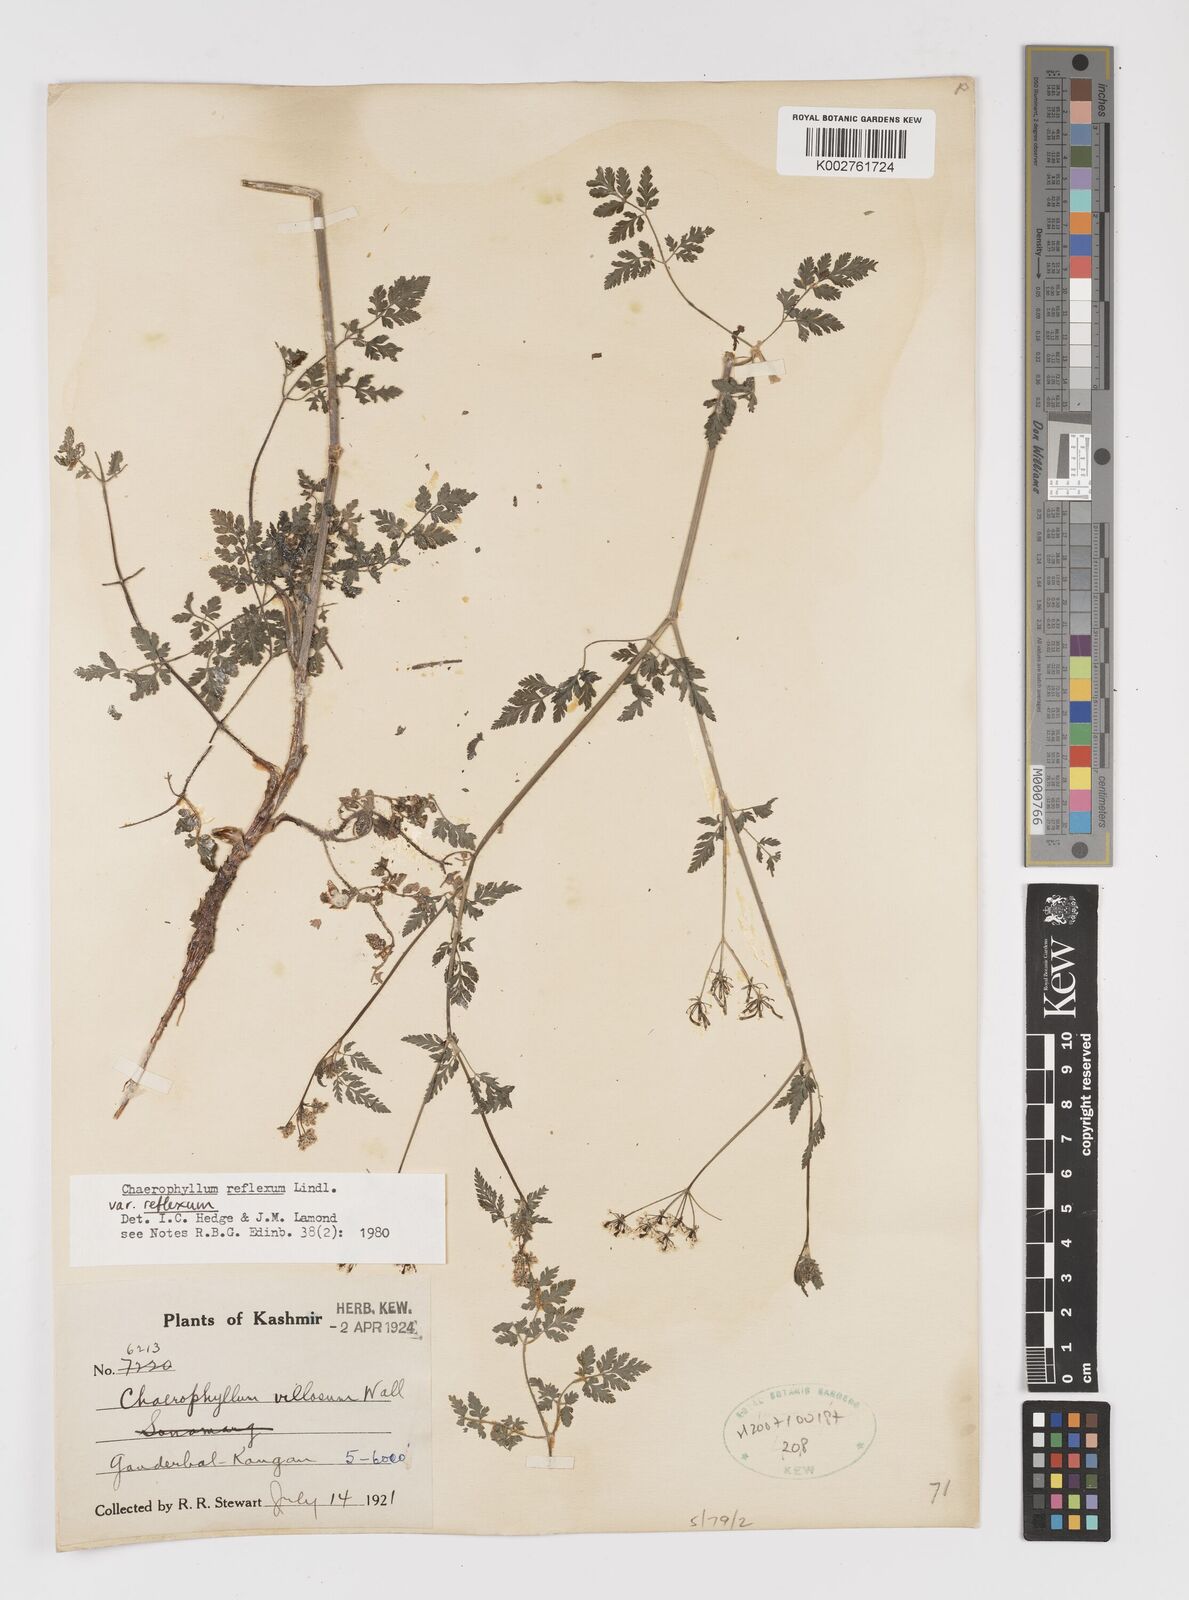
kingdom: Plantae
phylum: Tracheophyta
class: Magnoliopsida
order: Apiales
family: Apiaceae
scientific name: Apiaceae
